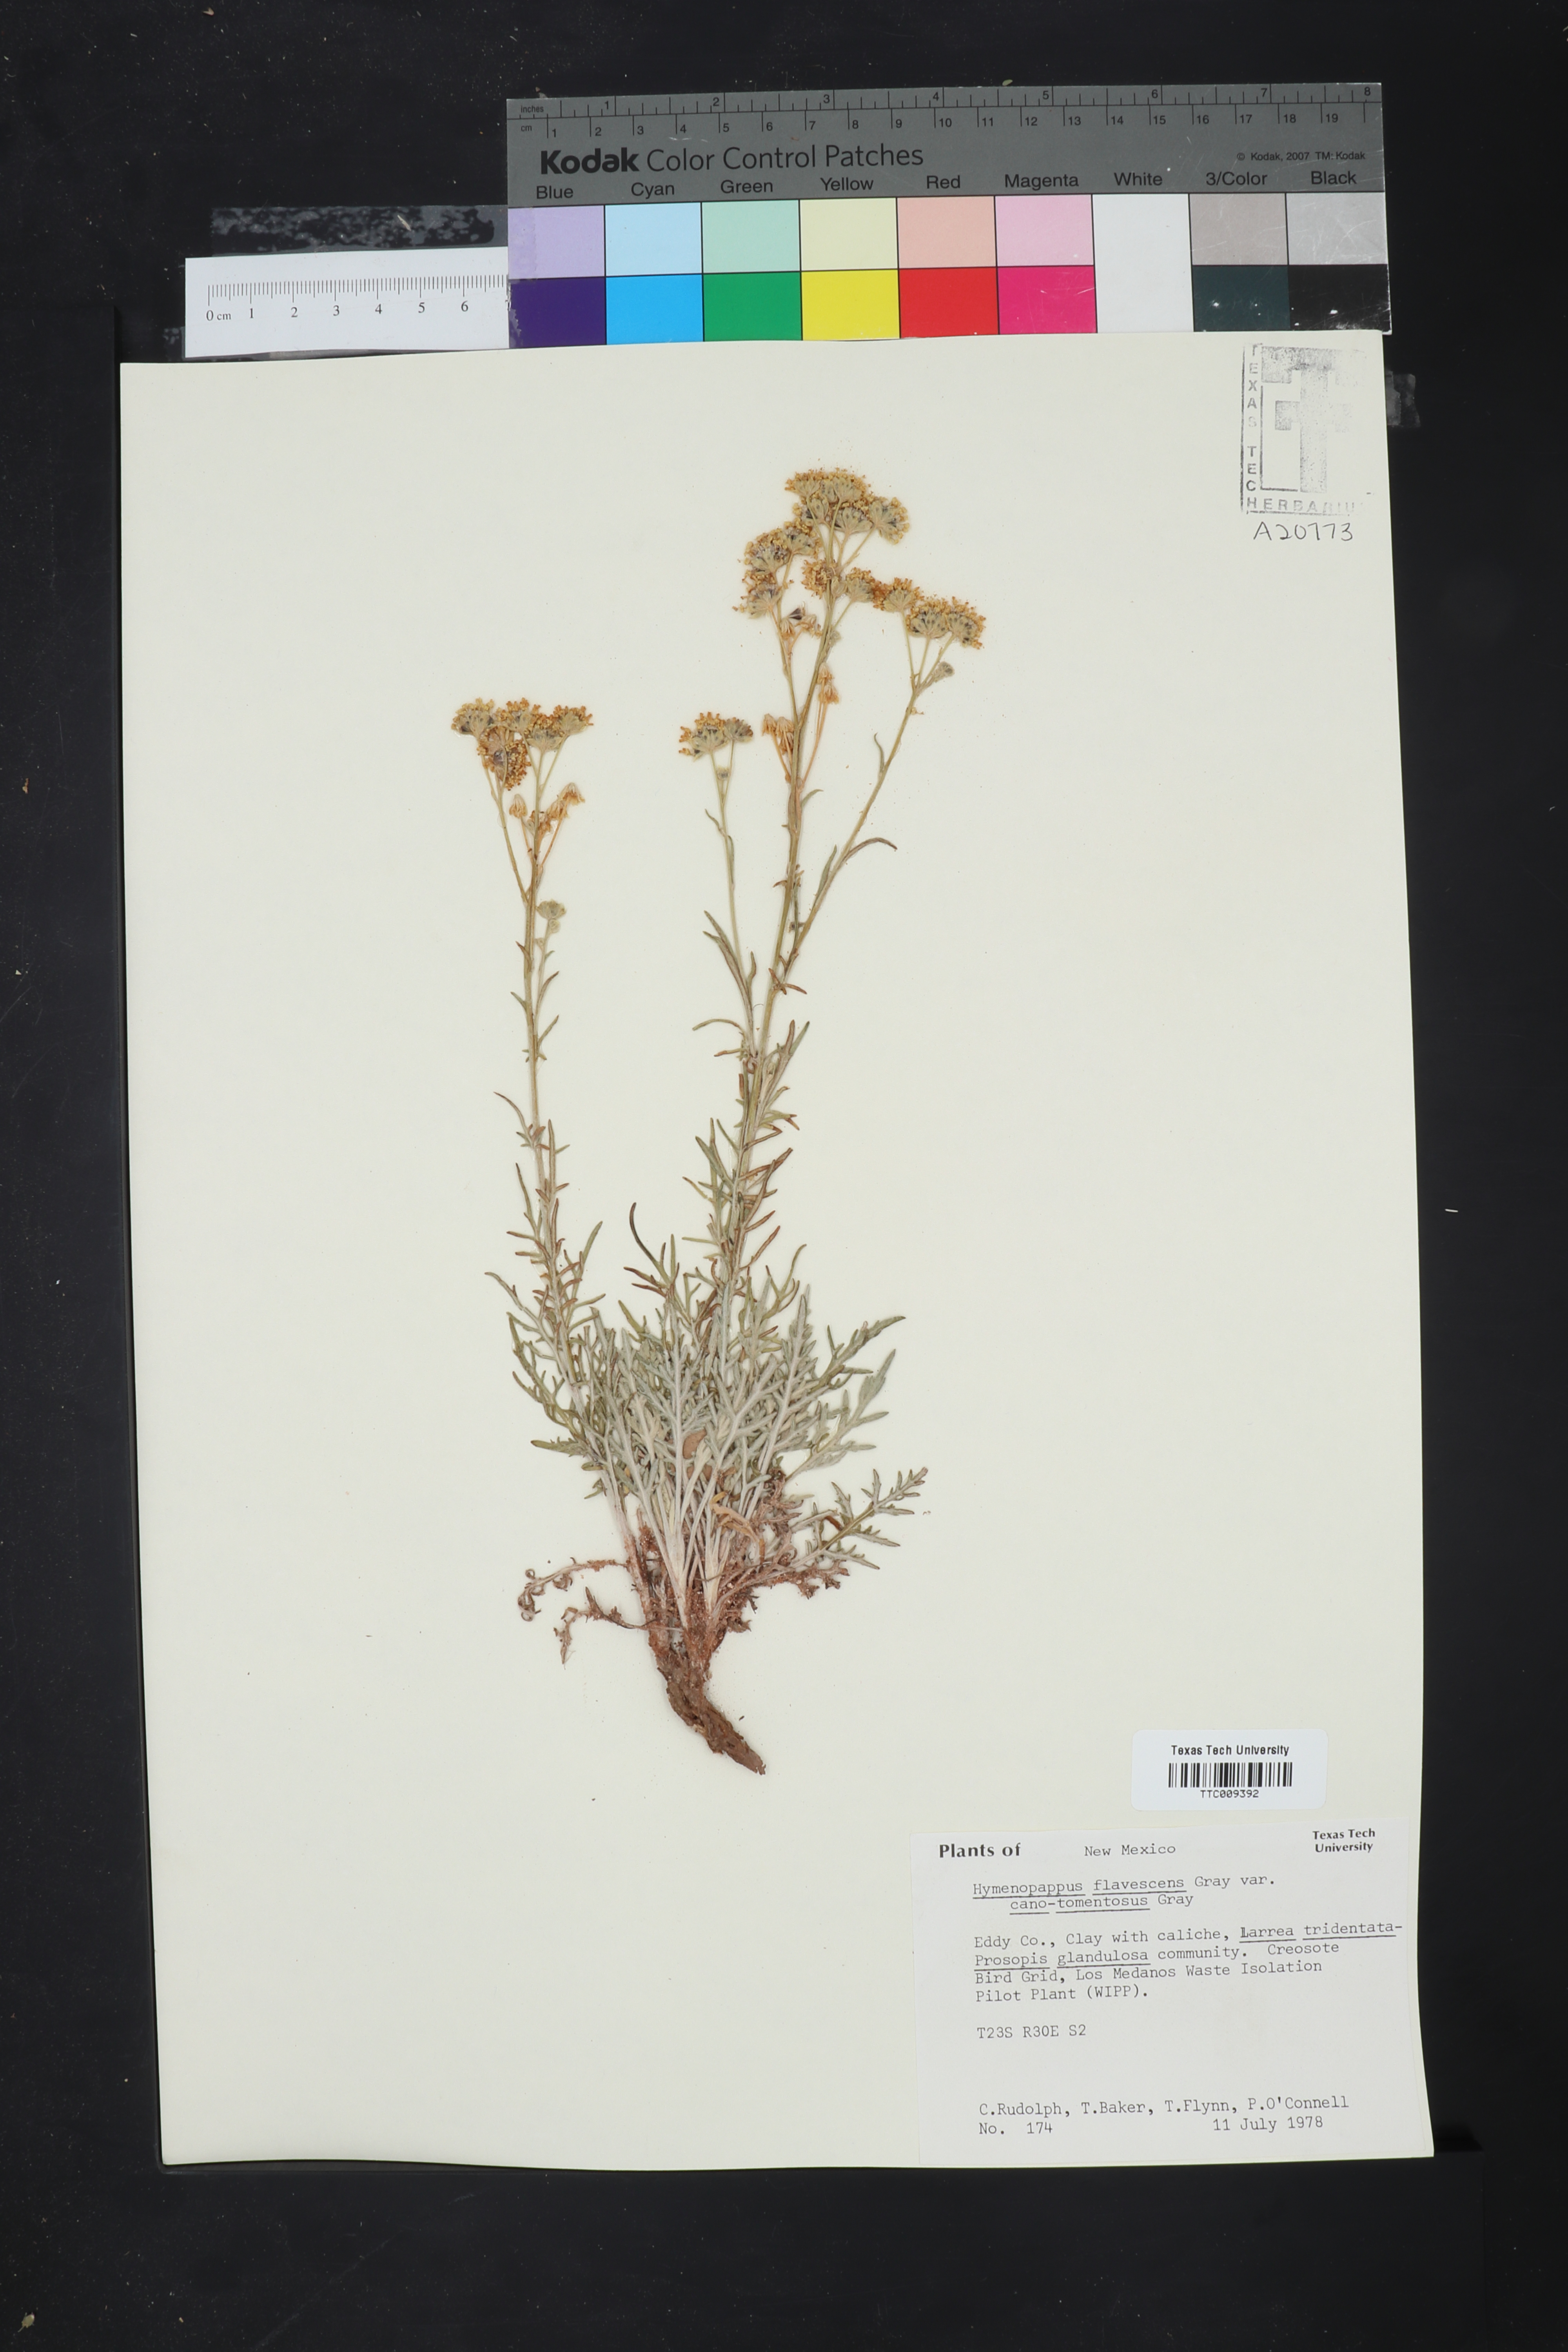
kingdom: Plantae
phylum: Tracheophyta
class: Magnoliopsida
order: Asterales
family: Asteraceae
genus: Hymenopappus
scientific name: Hymenopappus flavescens
